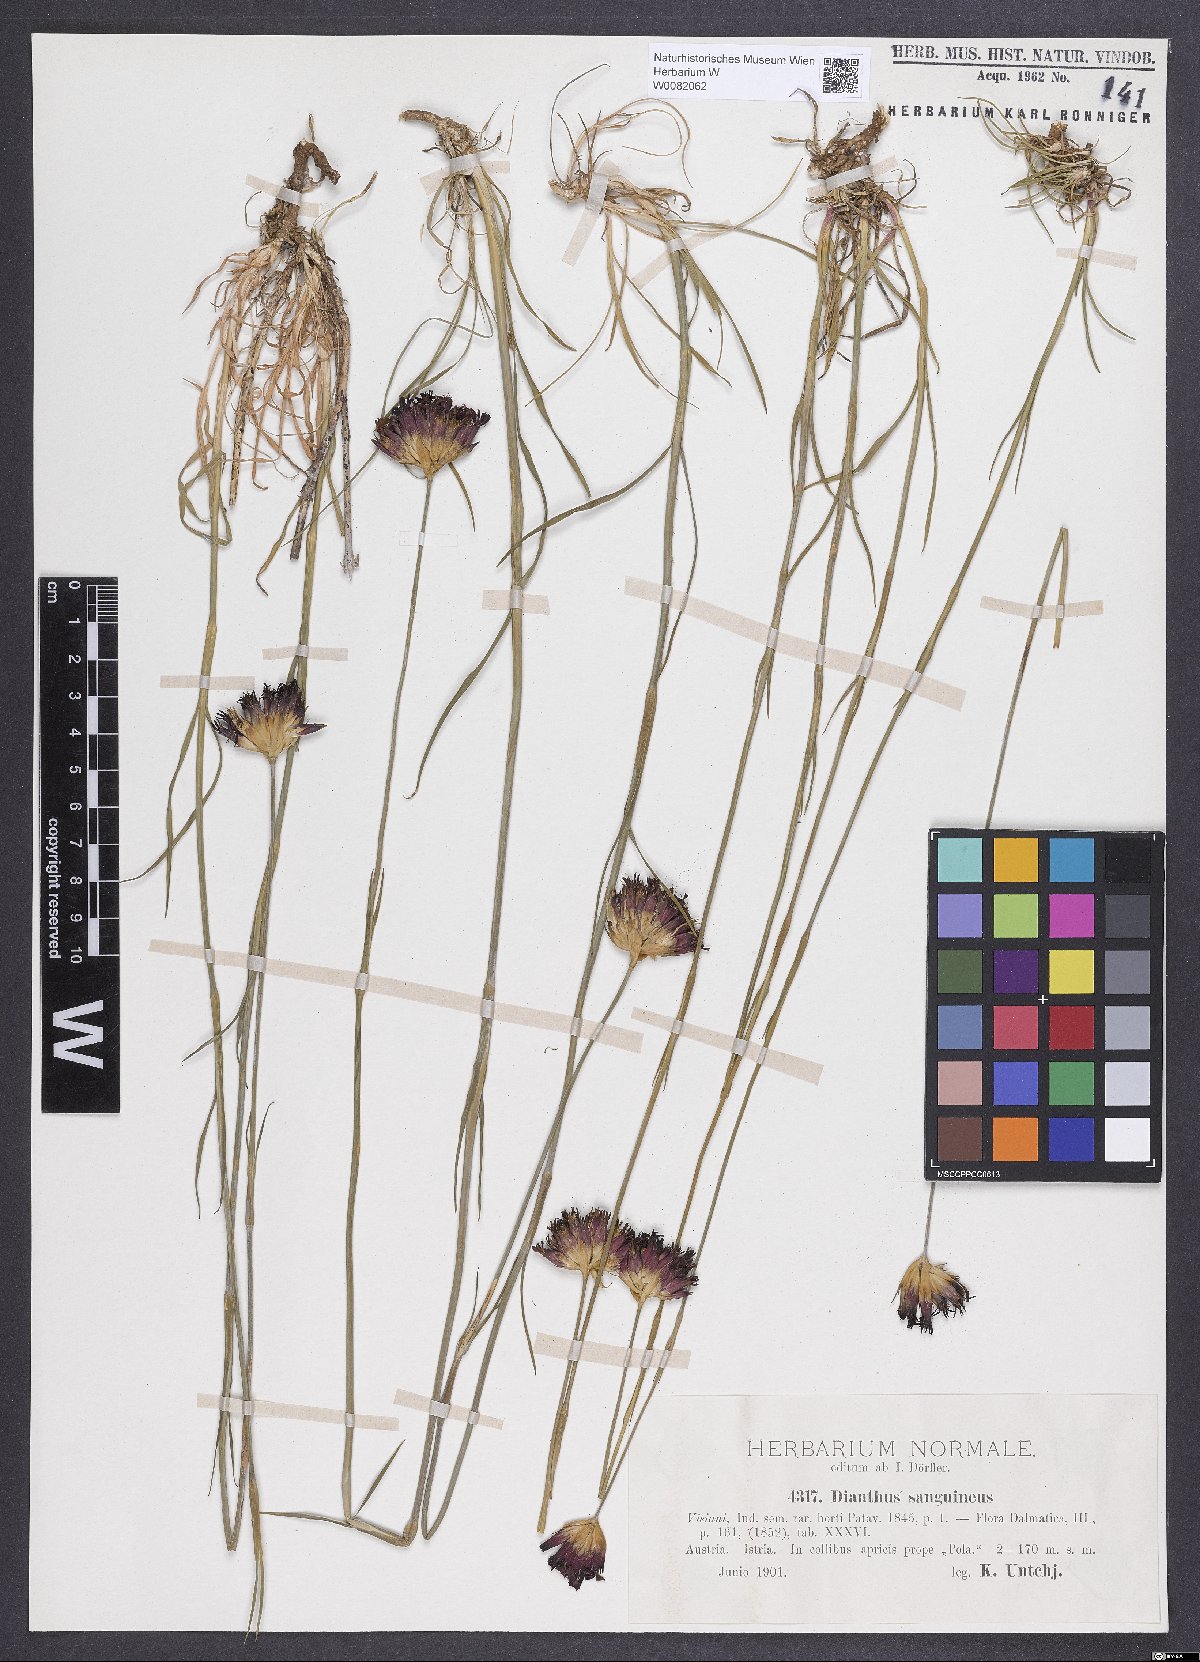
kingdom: Plantae
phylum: Tracheophyta
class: Magnoliopsida
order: Caryophyllales
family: Caryophyllaceae
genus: Dianthus
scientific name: Dianthus carthusianorum
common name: Carthusian pink
